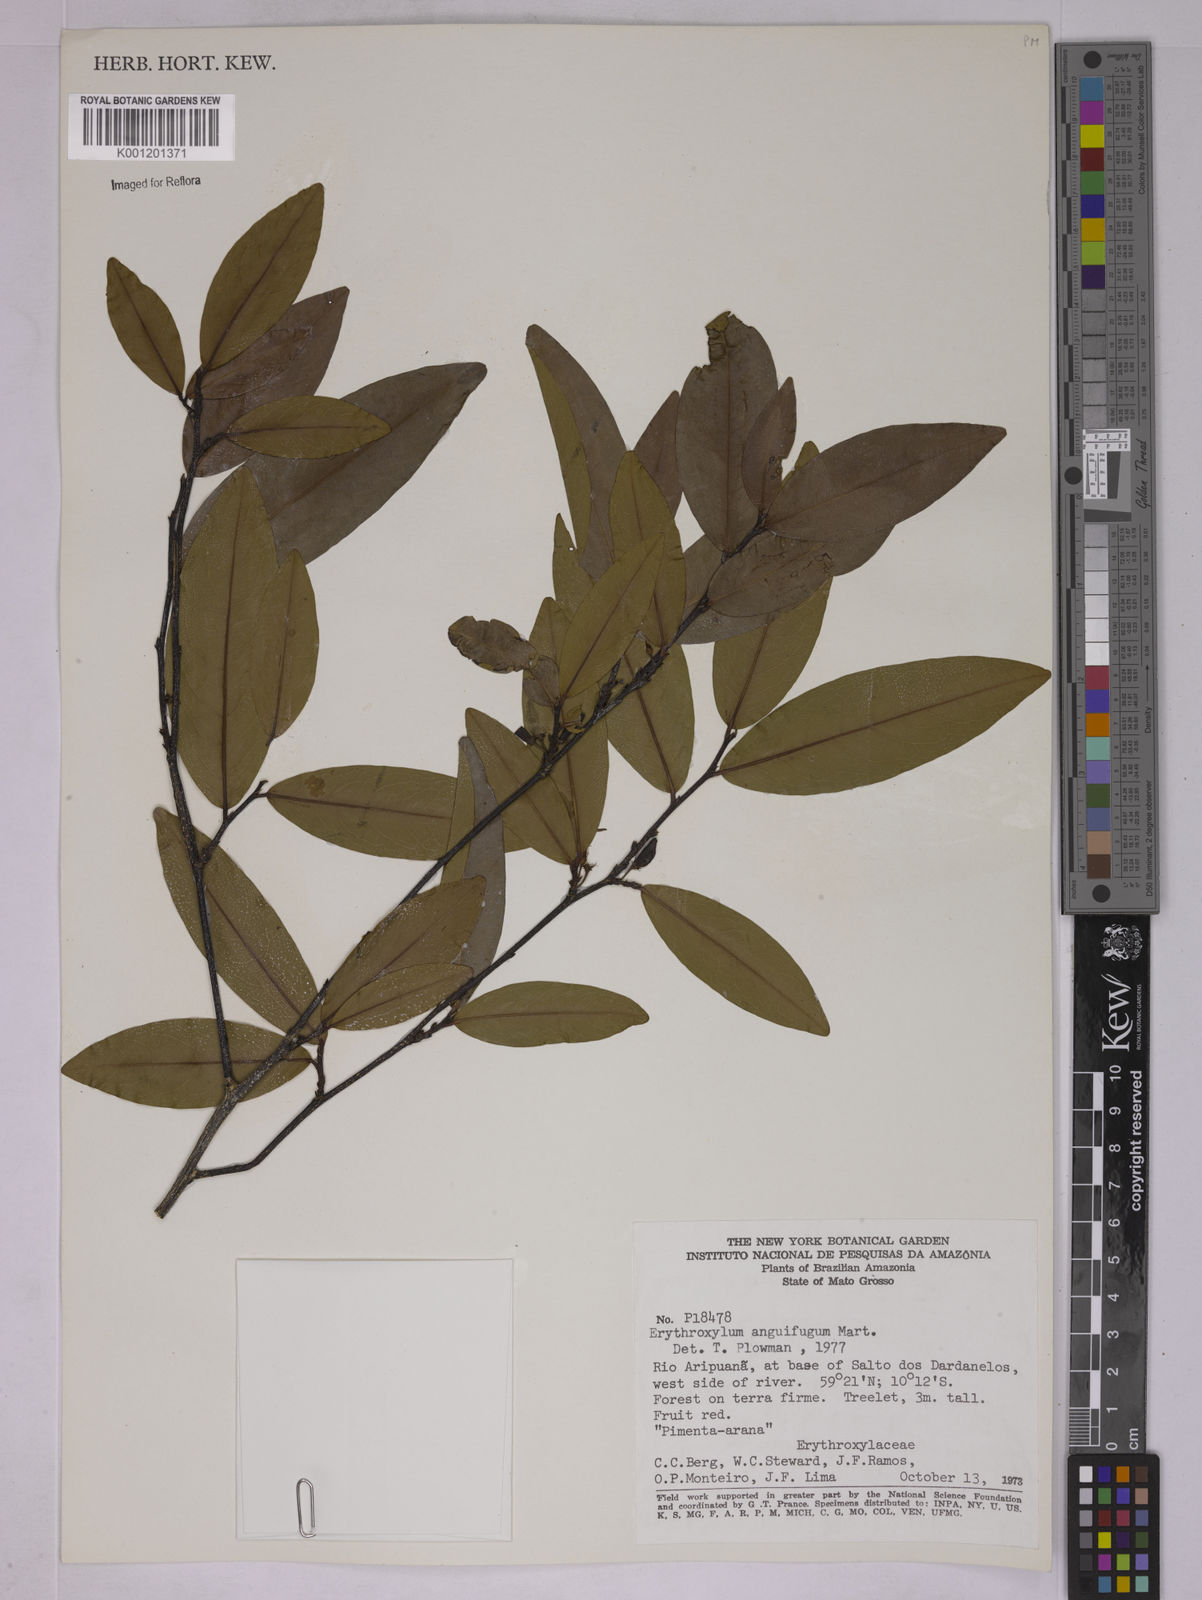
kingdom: Plantae
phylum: Tracheophyta
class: Magnoliopsida
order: Malpighiales
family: Erythroxylaceae
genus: Erythroxylum
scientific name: Erythroxylum anguifugum
